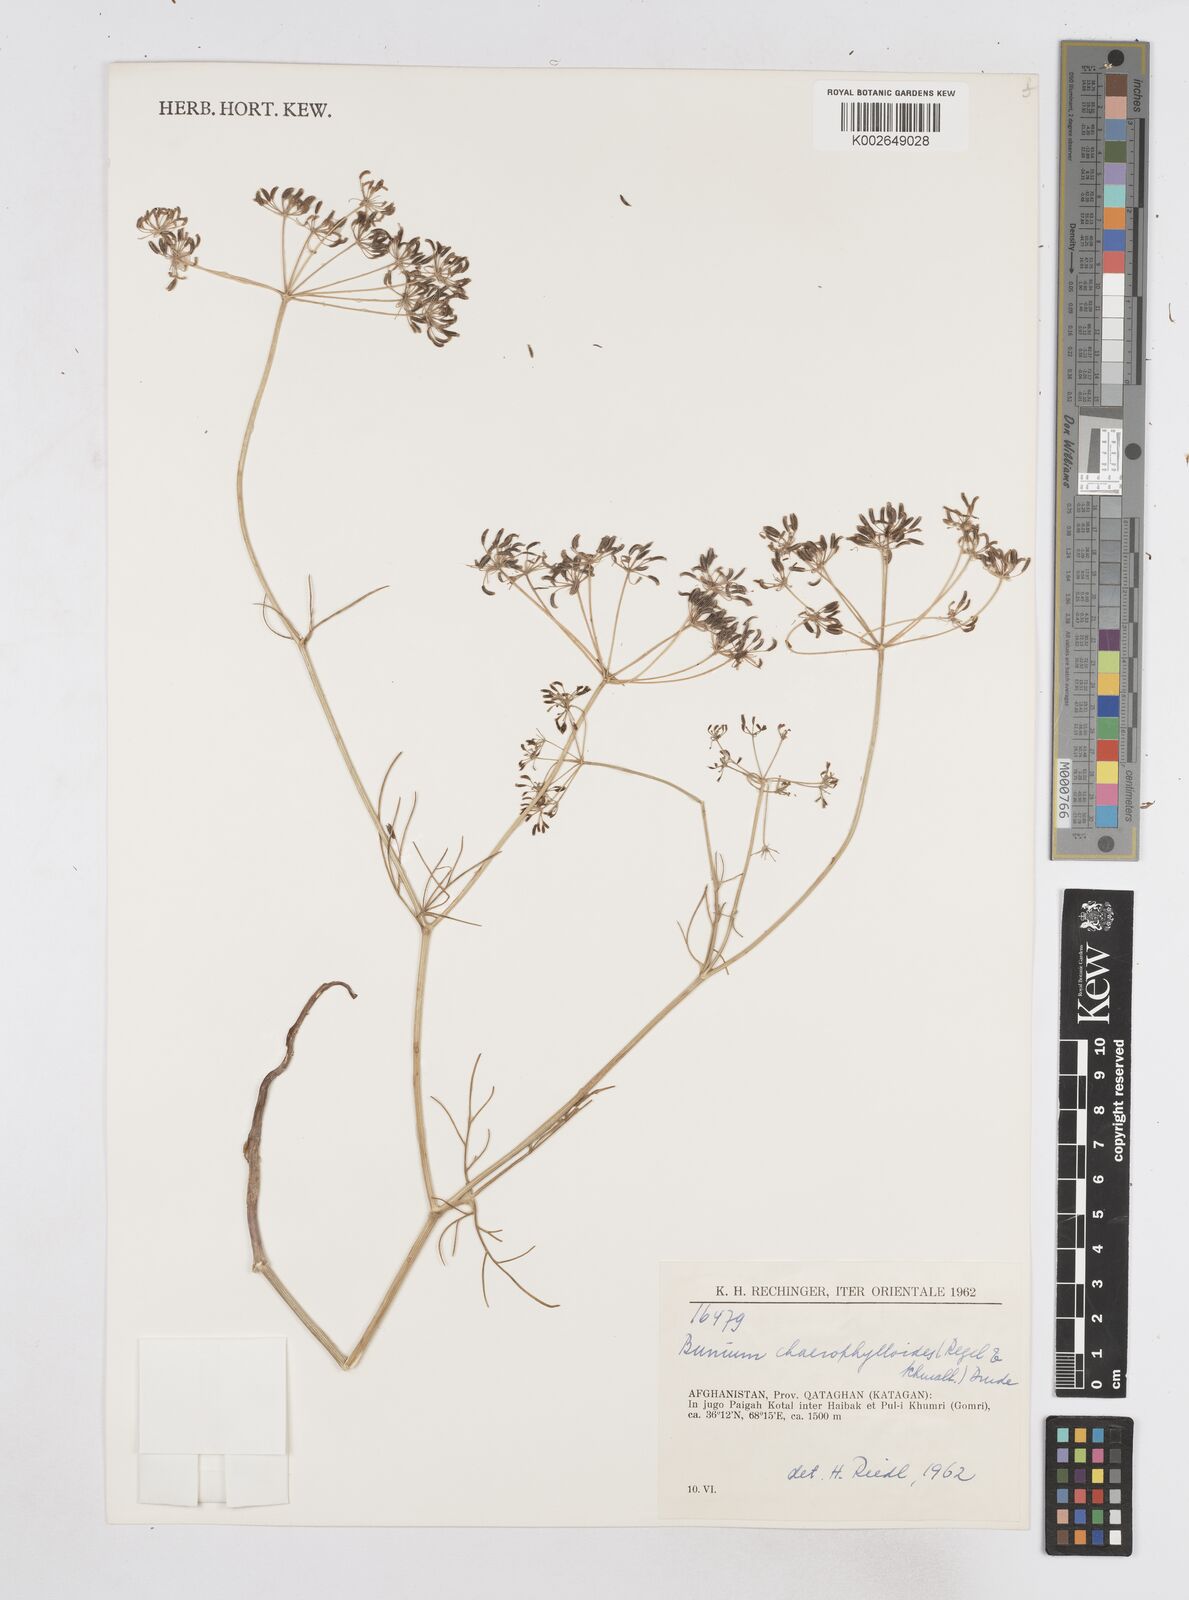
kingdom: Plantae
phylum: Tracheophyta
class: Magnoliopsida
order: Apiales
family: Apiaceae
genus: Elwendia
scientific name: Elwendia chaerophylloides
